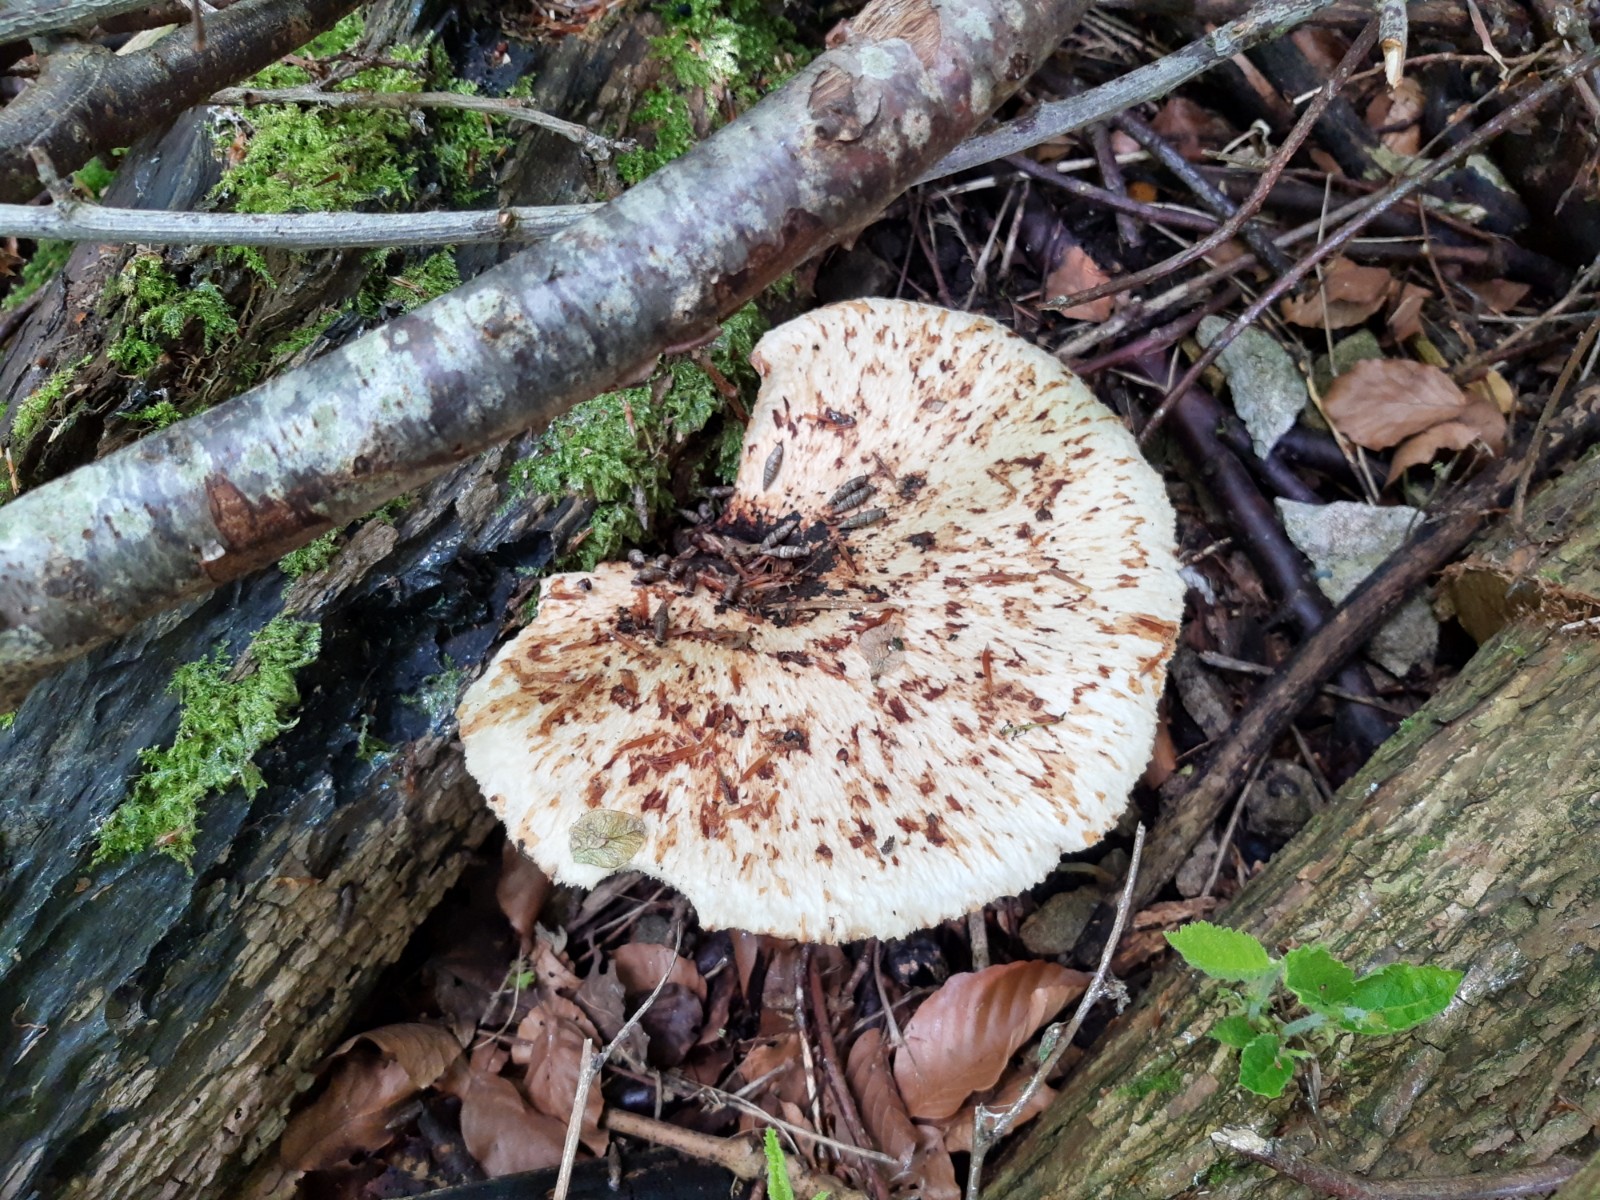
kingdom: Fungi
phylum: Basidiomycota
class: Agaricomycetes
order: Polyporales
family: Polyporaceae
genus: Cerioporus
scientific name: Cerioporus squamosus
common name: skællet stilkporesvamp
